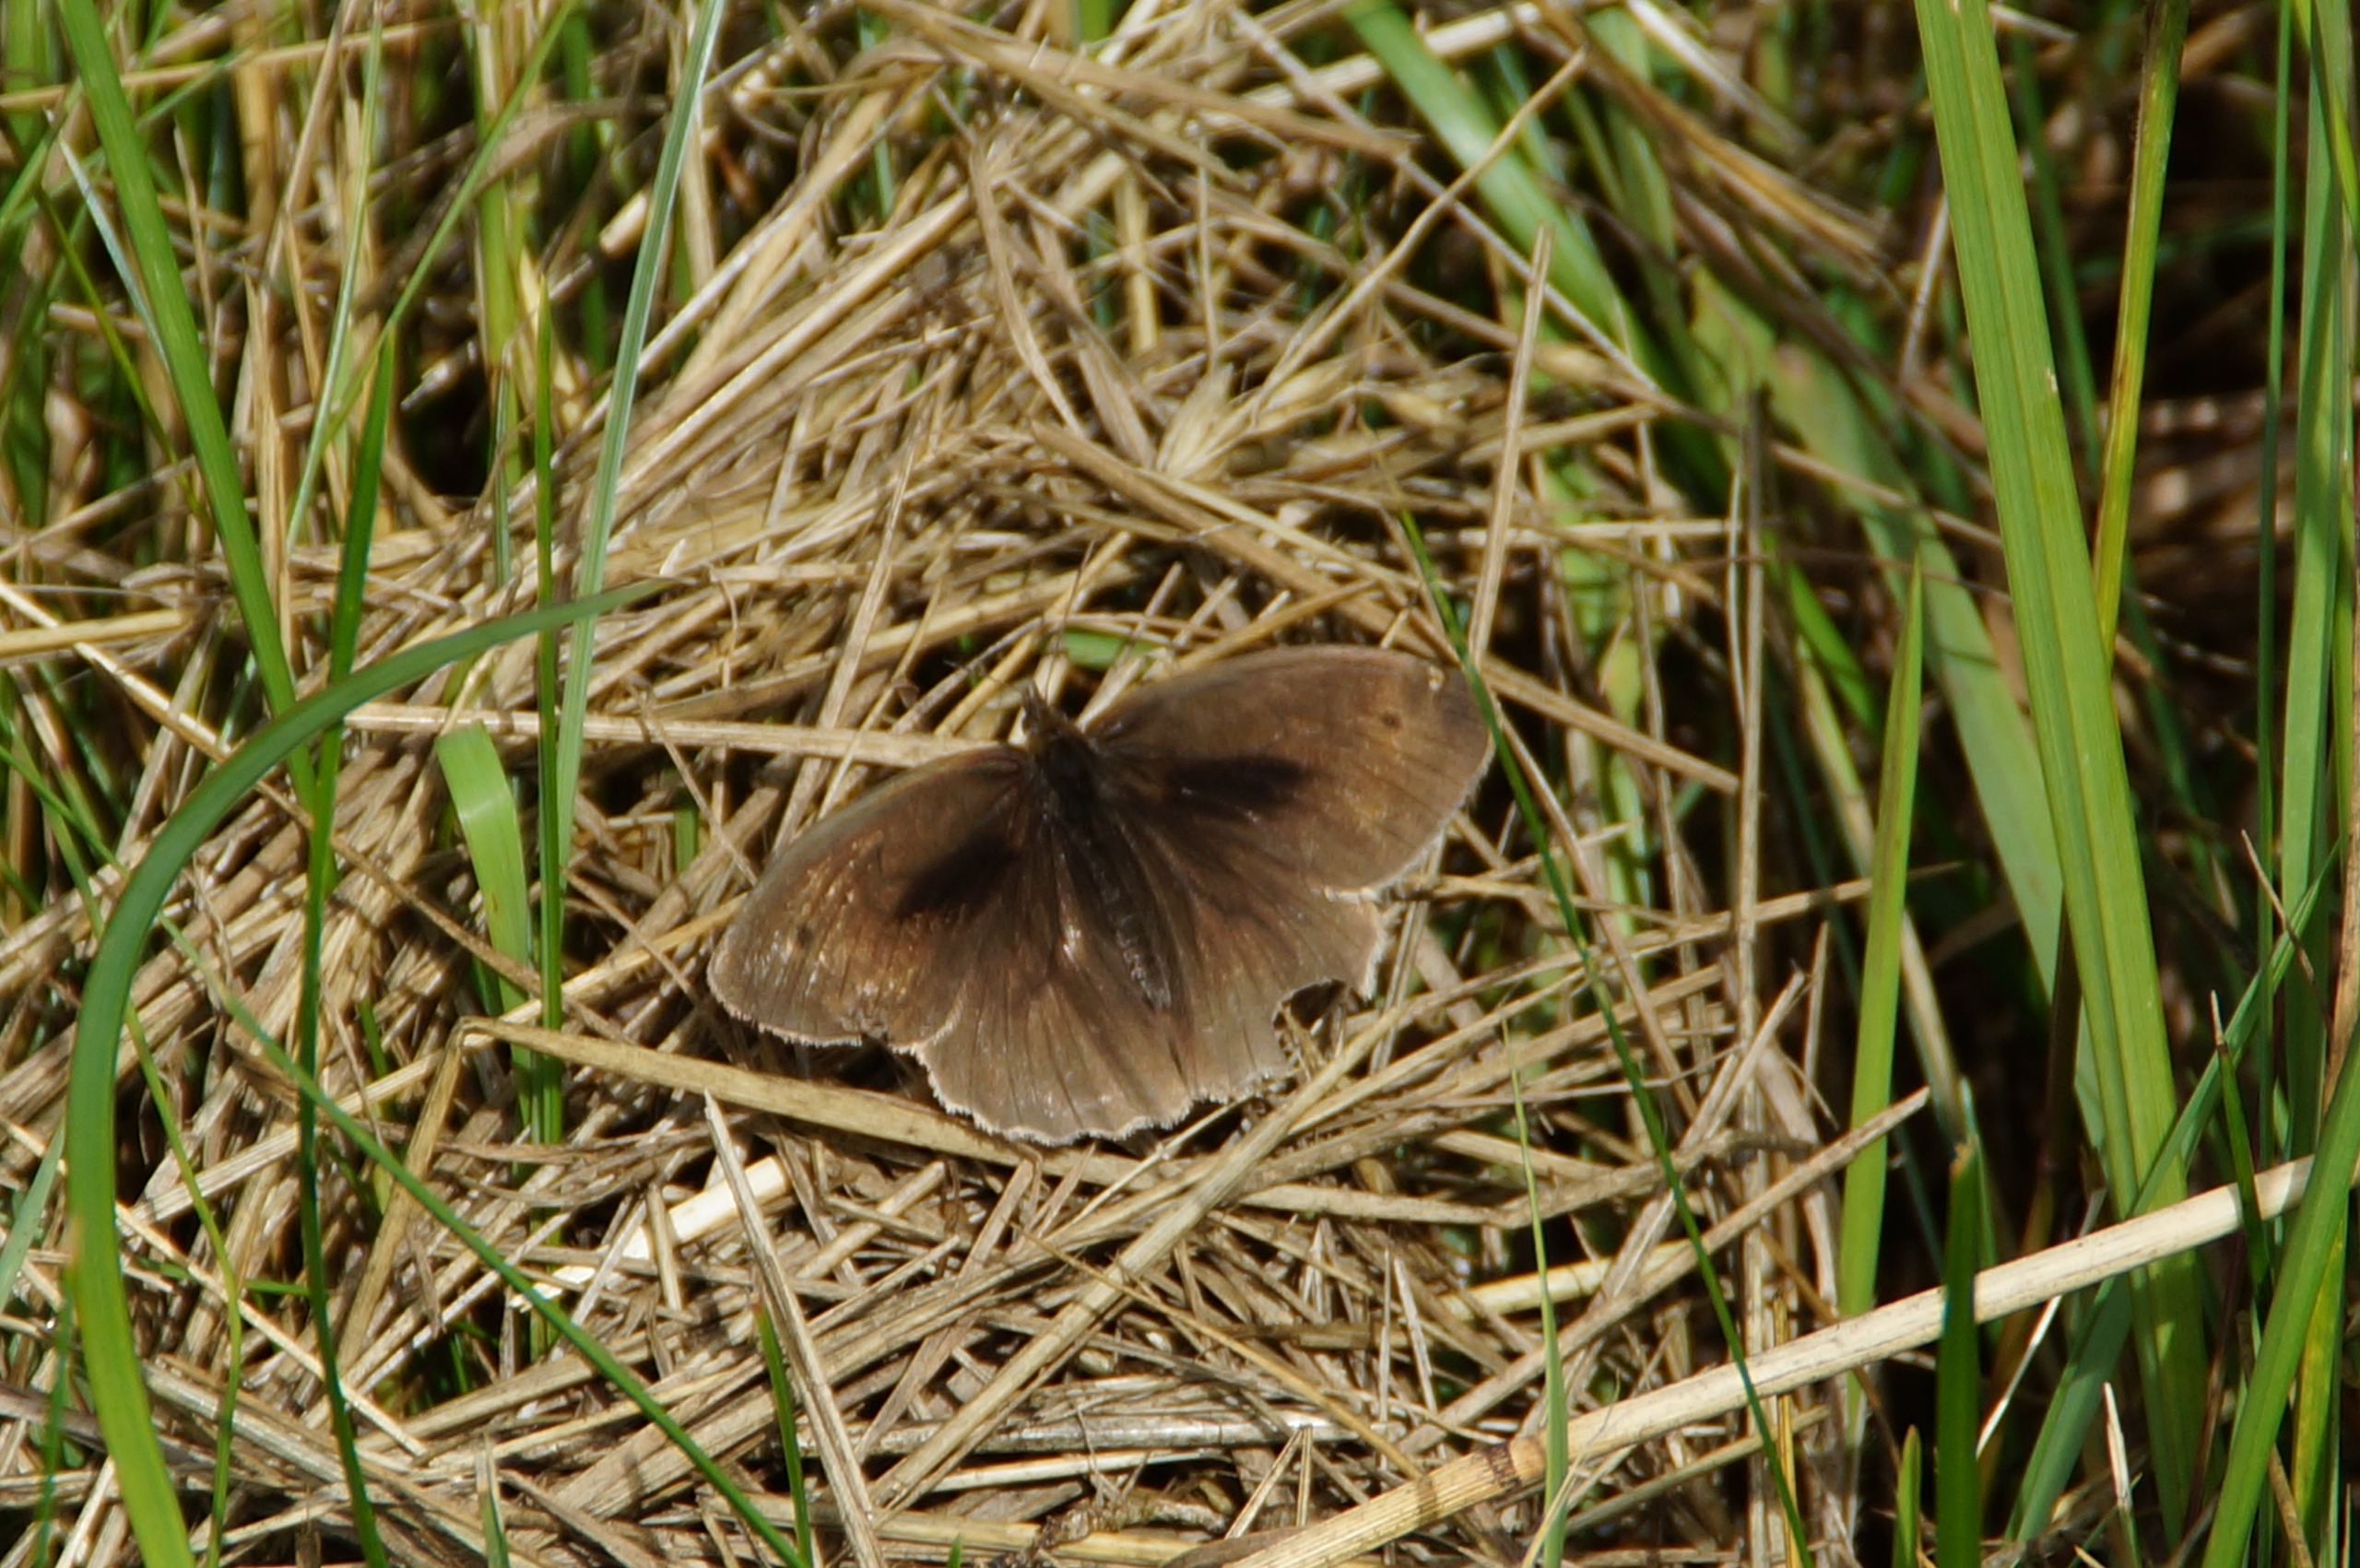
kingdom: Animalia
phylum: Arthropoda
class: Insecta
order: Lepidoptera
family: Nymphalidae
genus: Maniola
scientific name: Maniola jurtina
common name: Græsrandøje
